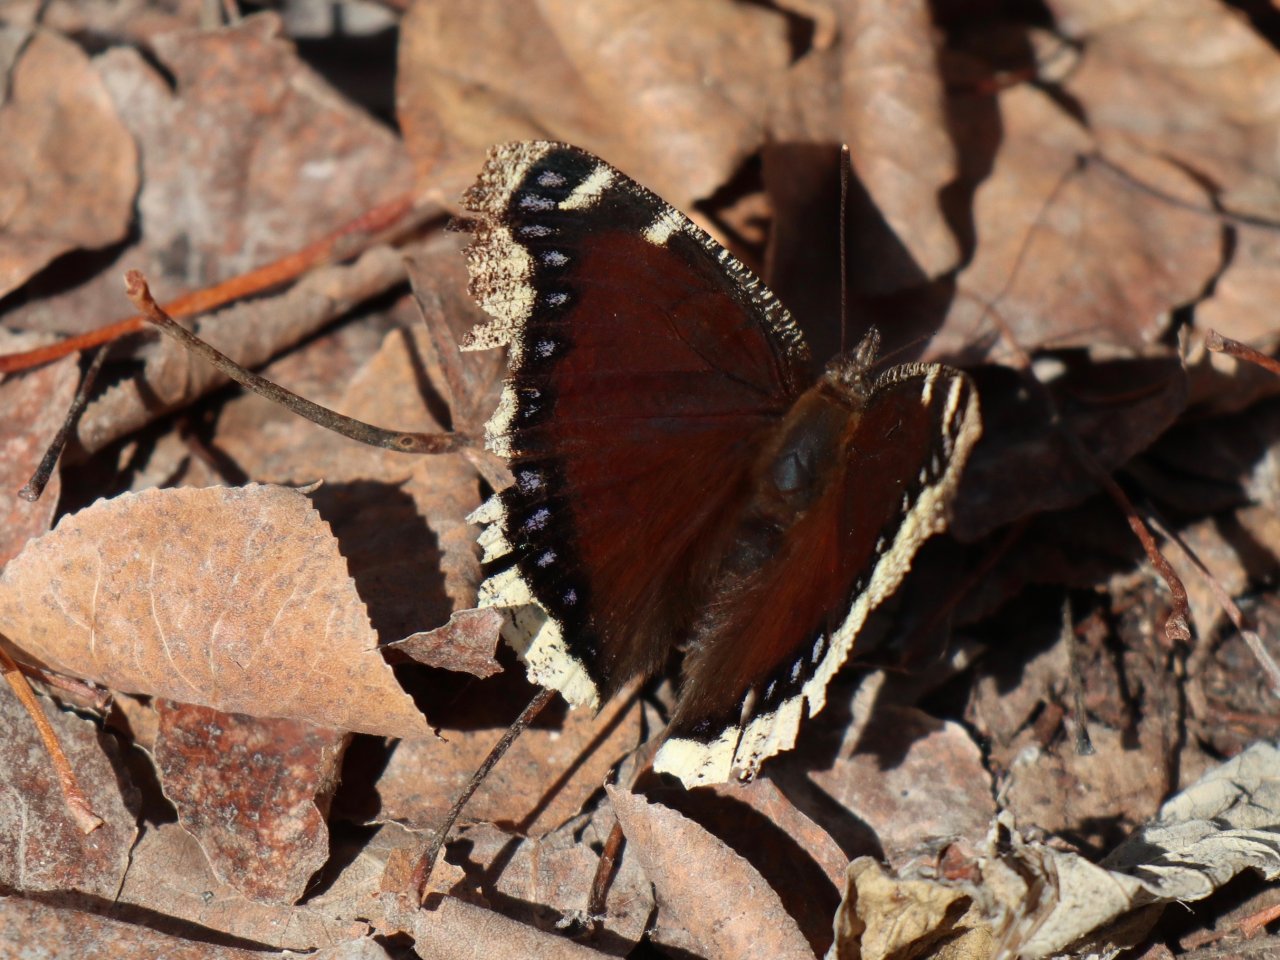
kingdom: Animalia
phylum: Arthropoda
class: Insecta
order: Lepidoptera
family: Nymphalidae
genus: Nymphalis
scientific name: Nymphalis antiopa
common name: Mourning Cloak
